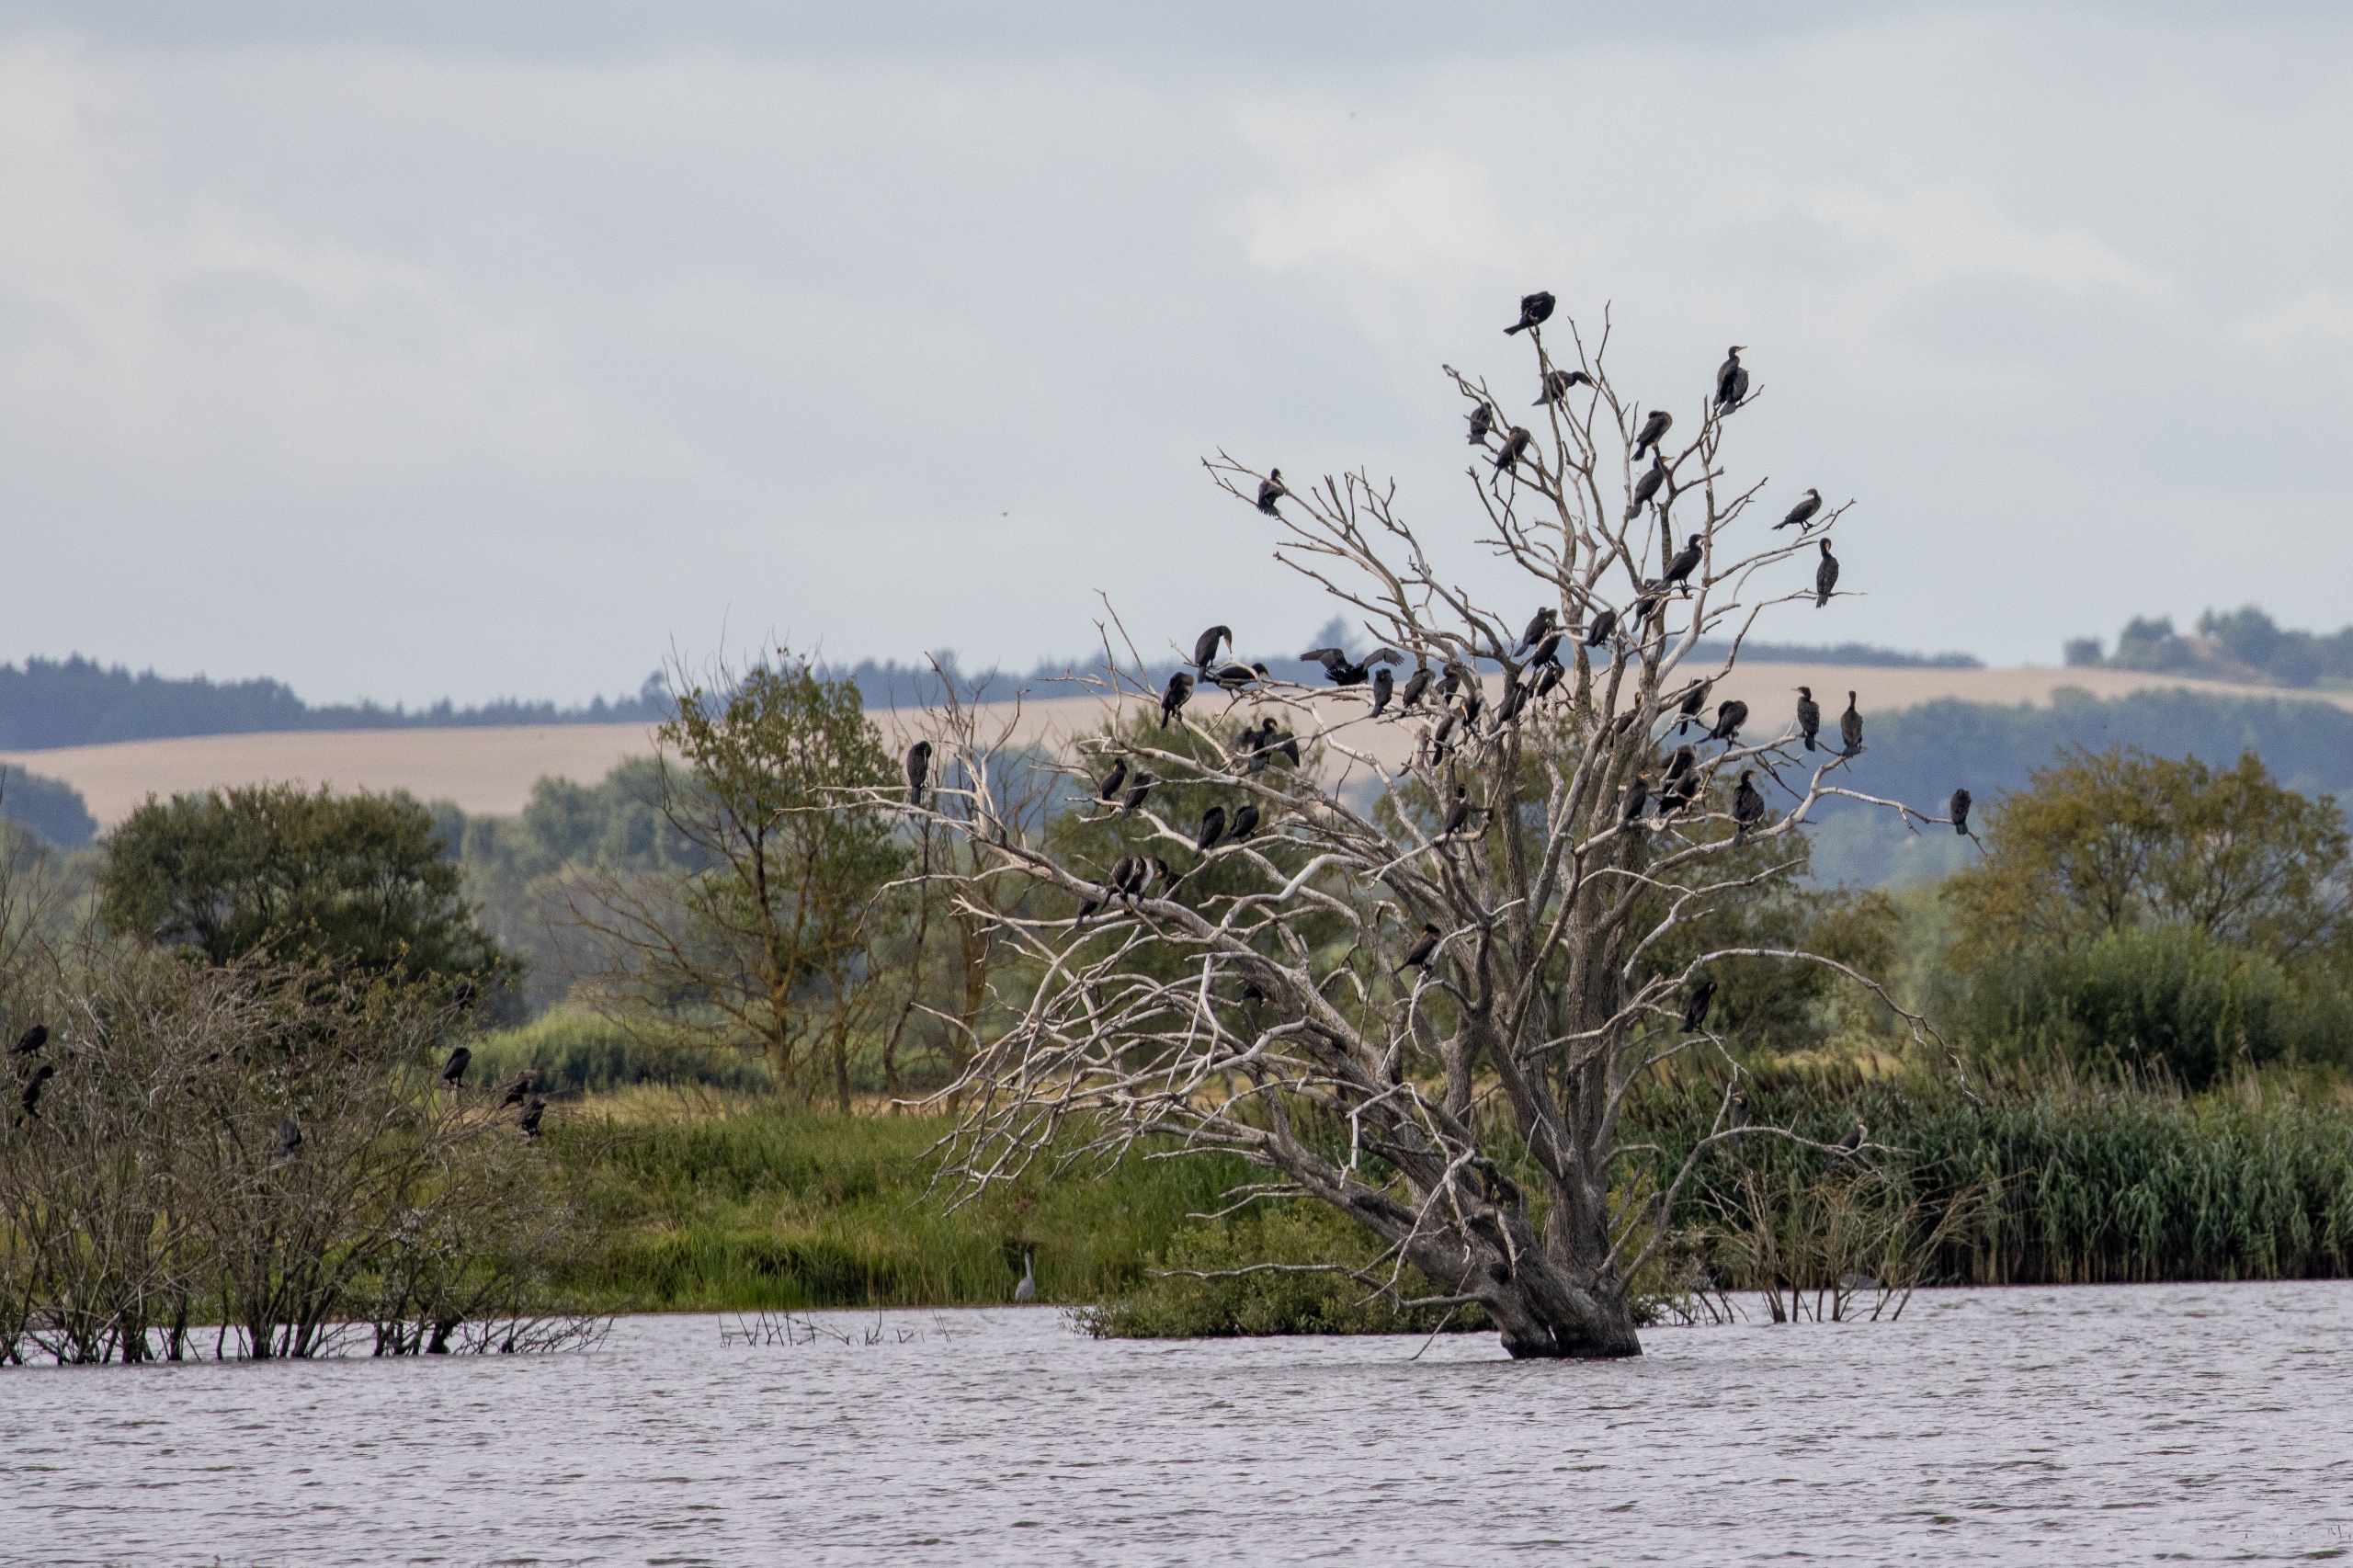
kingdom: Animalia
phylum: Chordata
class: Aves
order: Suliformes
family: Phalacrocoracidae
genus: Phalacrocorax
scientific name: Phalacrocorax carbo
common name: Skarv
